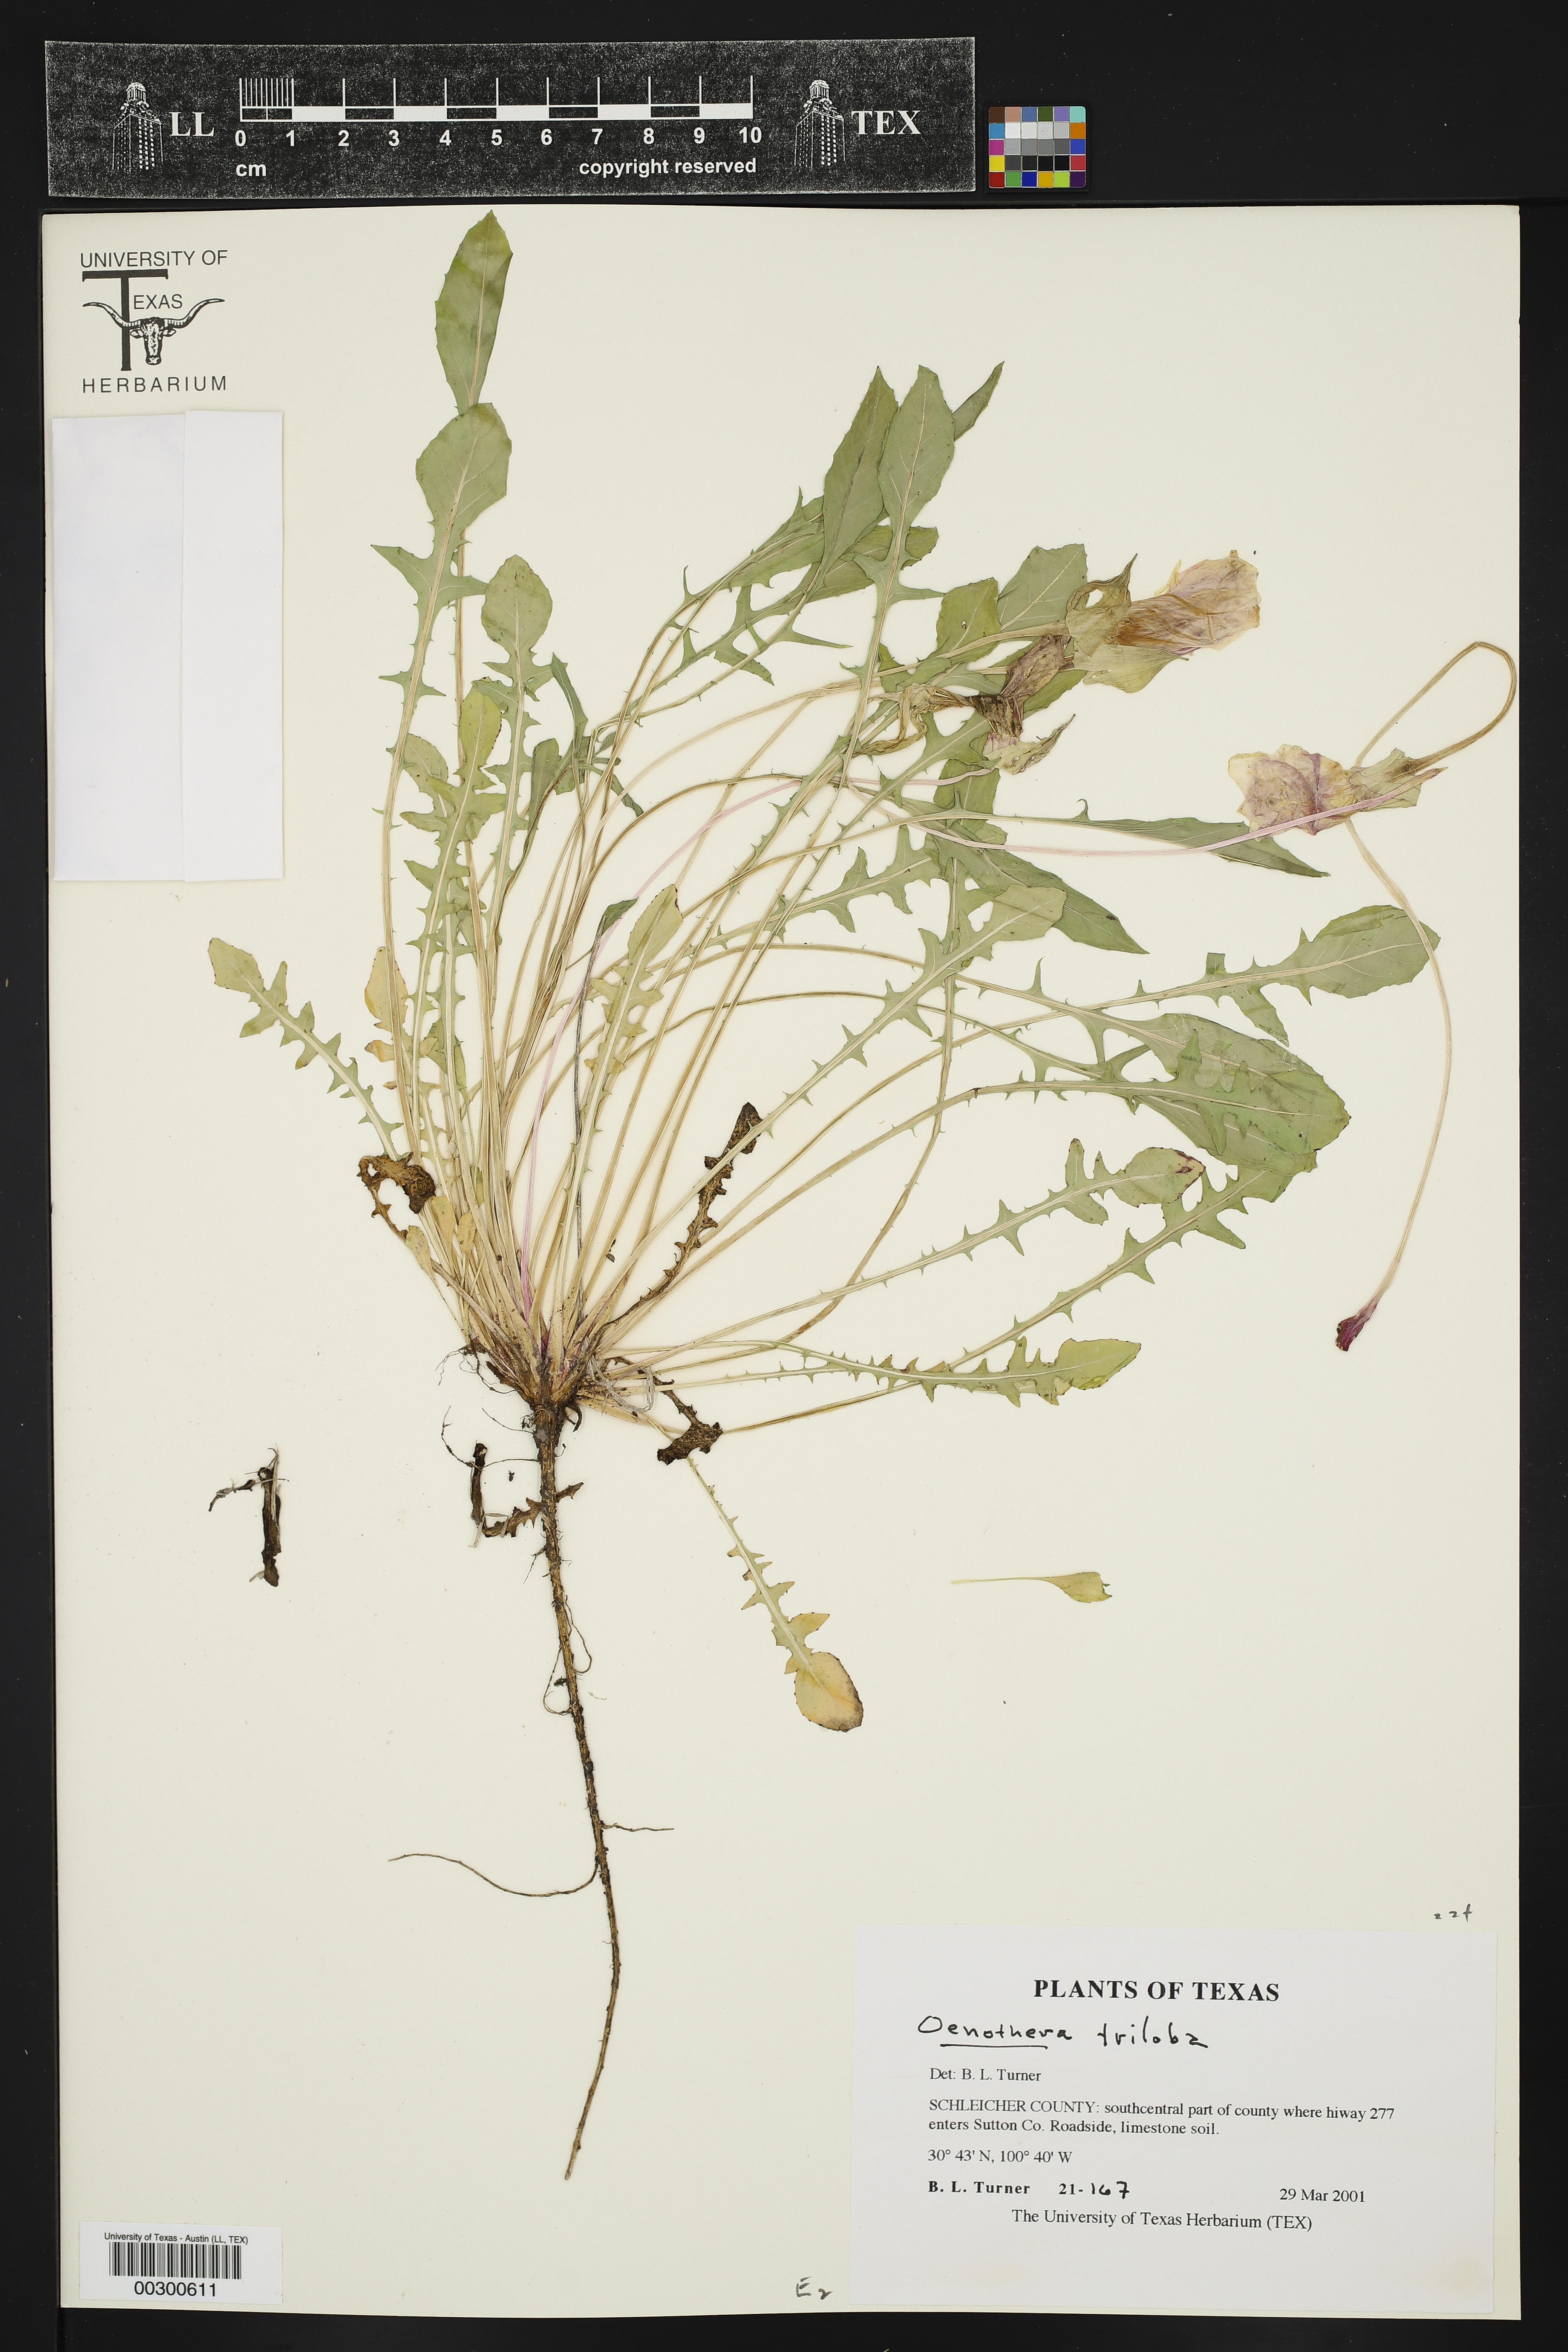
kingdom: Plantae
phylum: Tracheophyta
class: Magnoliopsida
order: Myrtales
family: Onagraceae
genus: Oenothera
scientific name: Oenothera triloba
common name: Sessile evening-primrose
